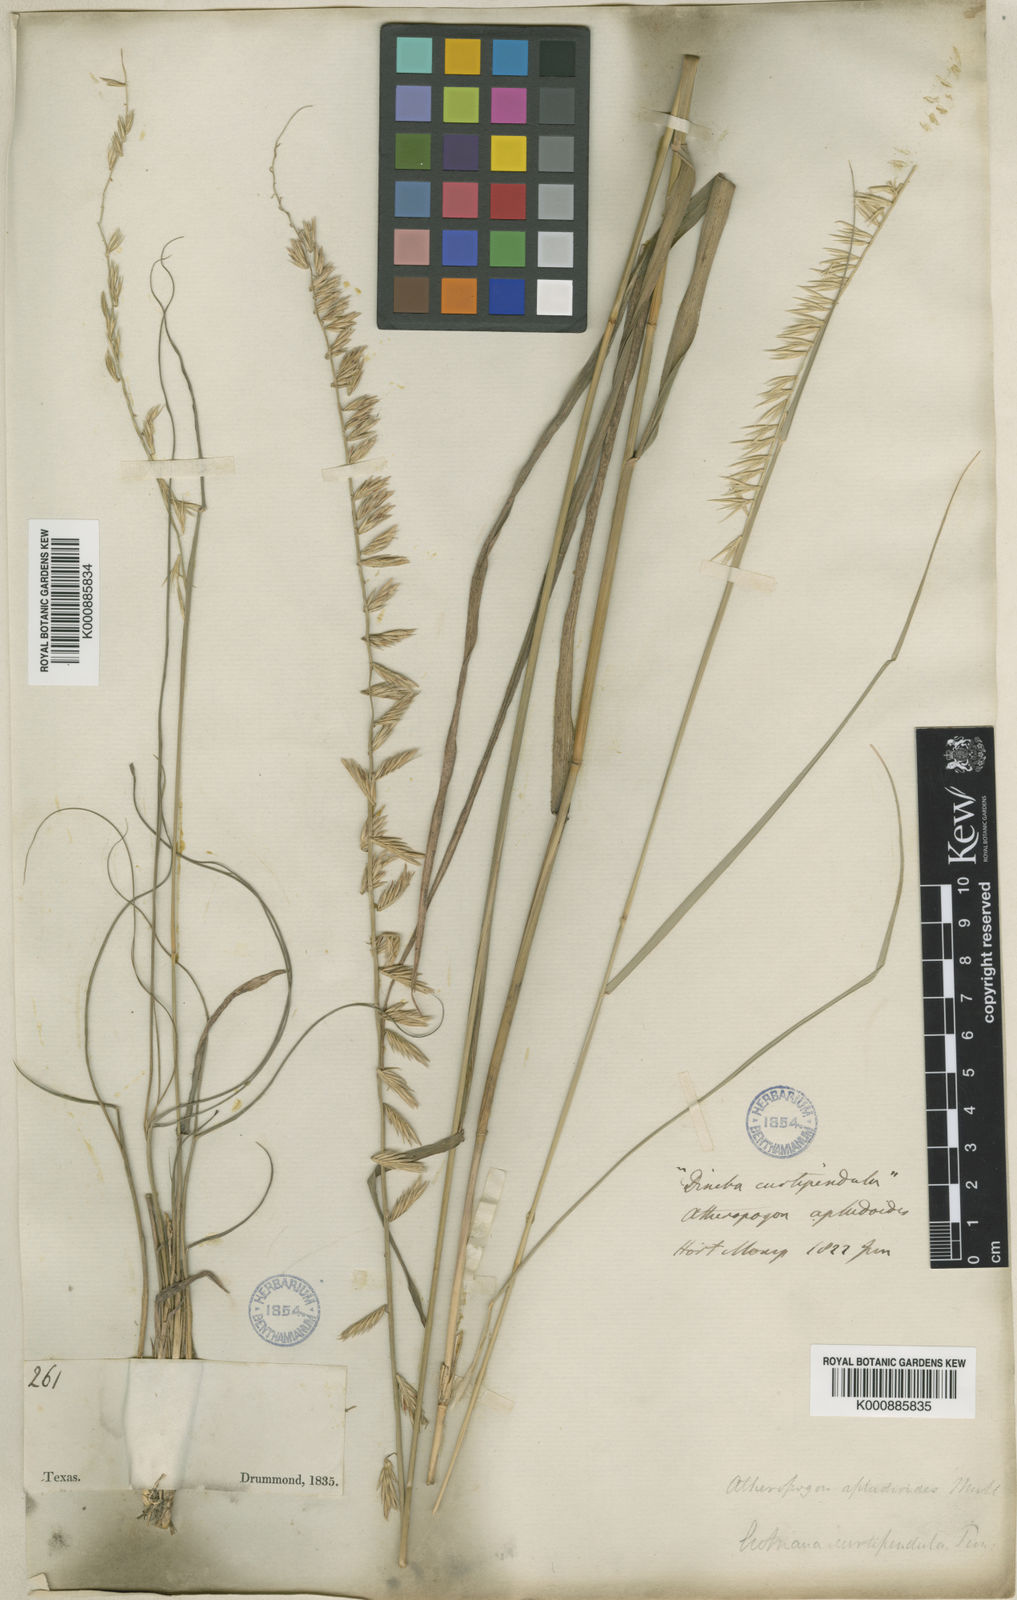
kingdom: Plantae
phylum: Tracheophyta
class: Liliopsida
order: Poales
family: Poaceae
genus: Bouteloua
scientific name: Bouteloua curtipendula
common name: Side-oats grama
